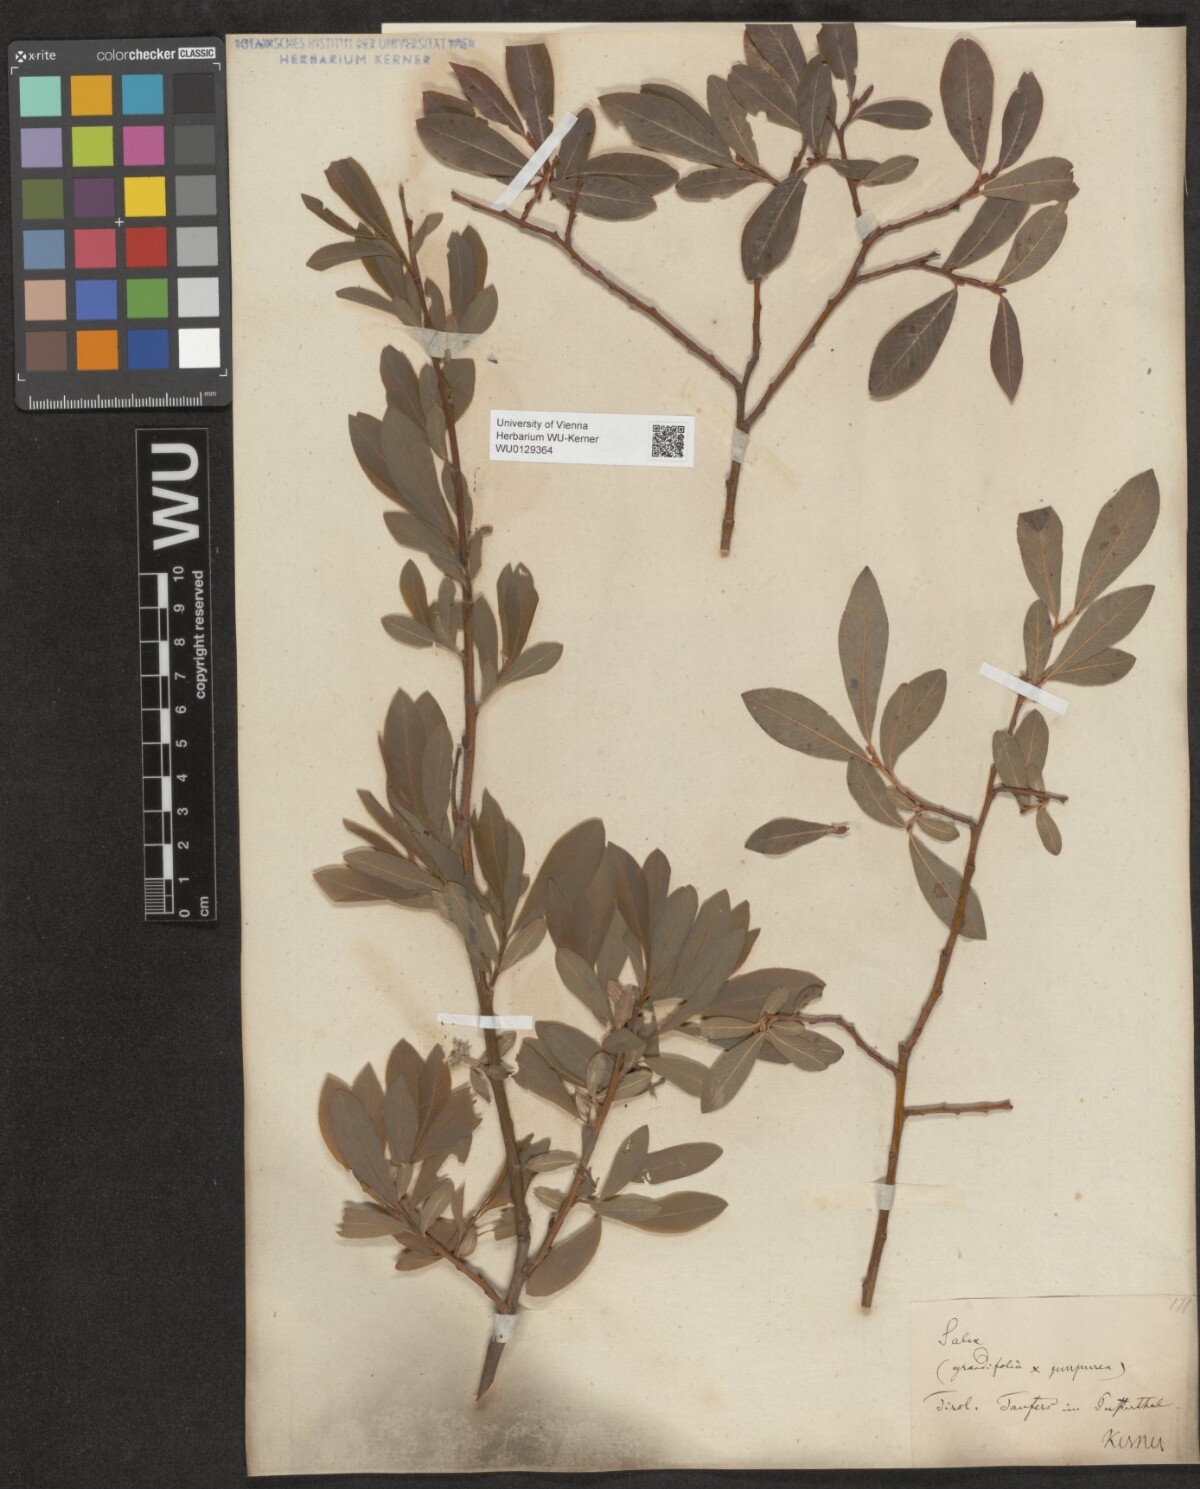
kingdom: Plantae
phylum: Tracheophyta
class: Magnoliopsida
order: Malpighiales
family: Salicaceae
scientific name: Salicaceae
